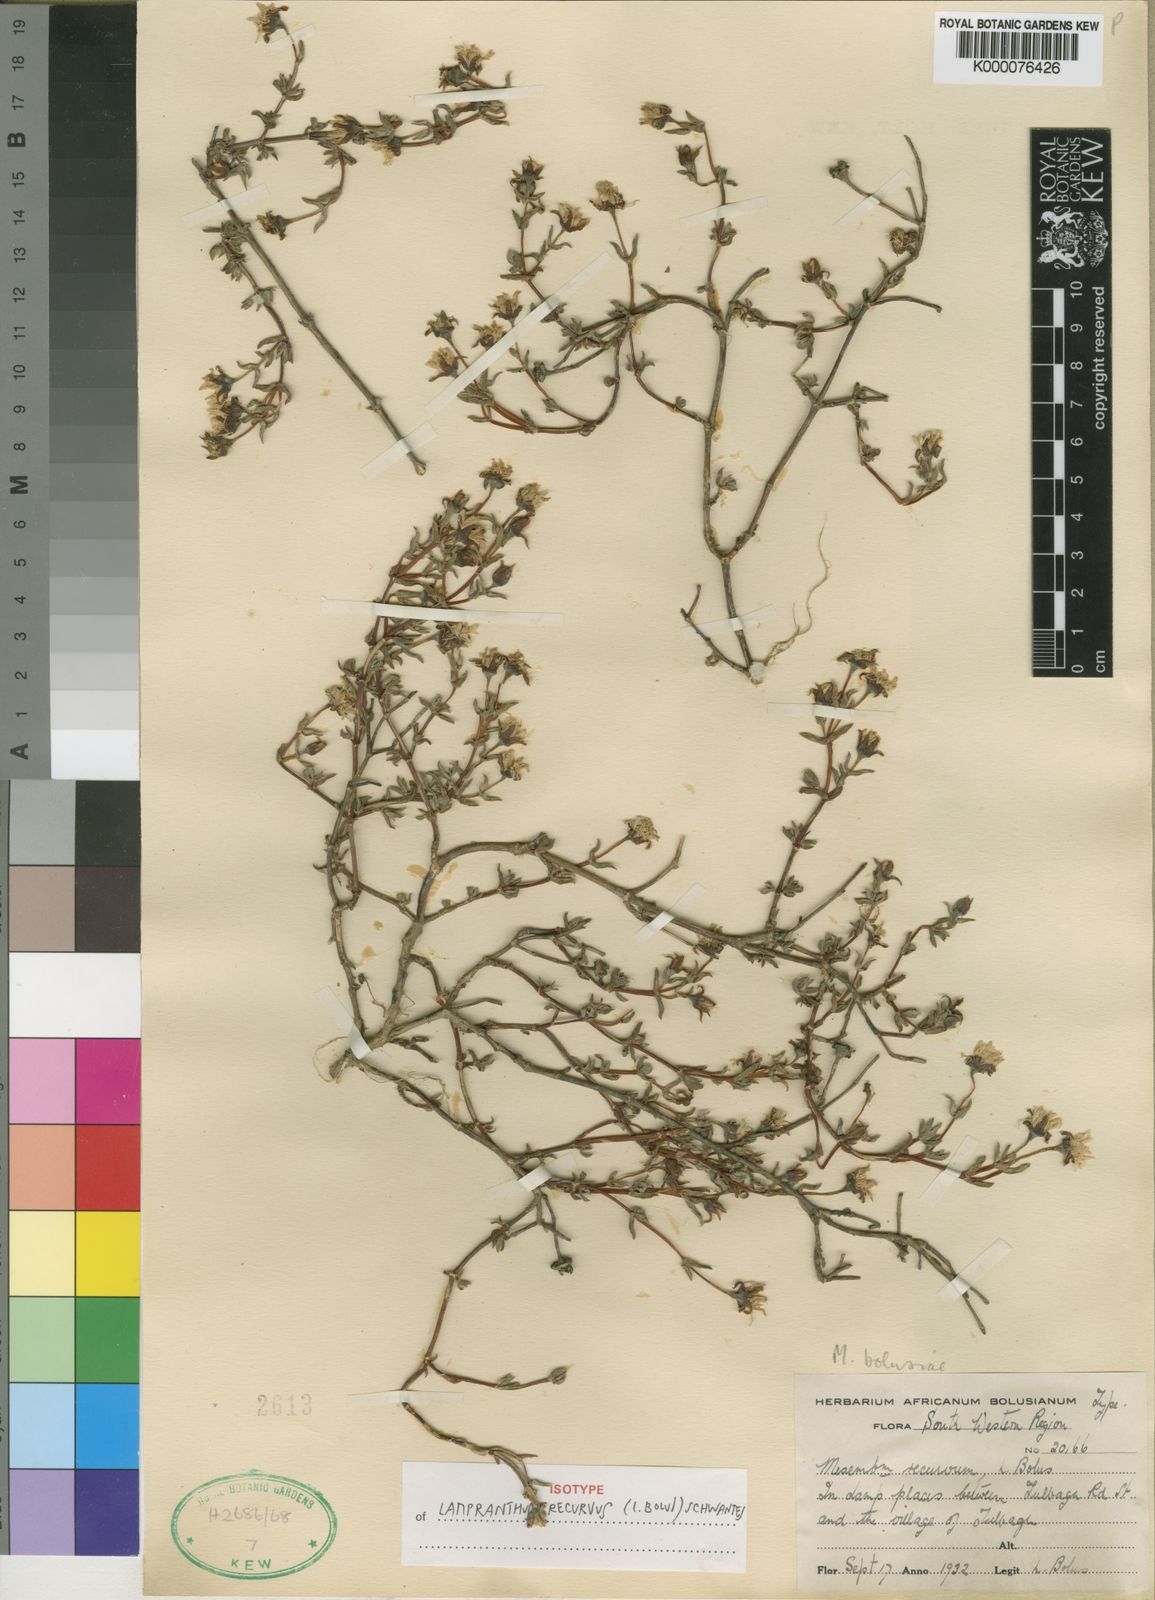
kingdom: Plantae
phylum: Tracheophyta
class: Magnoliopsida
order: Caryophyllales
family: Aizoaceae
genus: Lampranthus
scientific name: Lampranthus elegans
